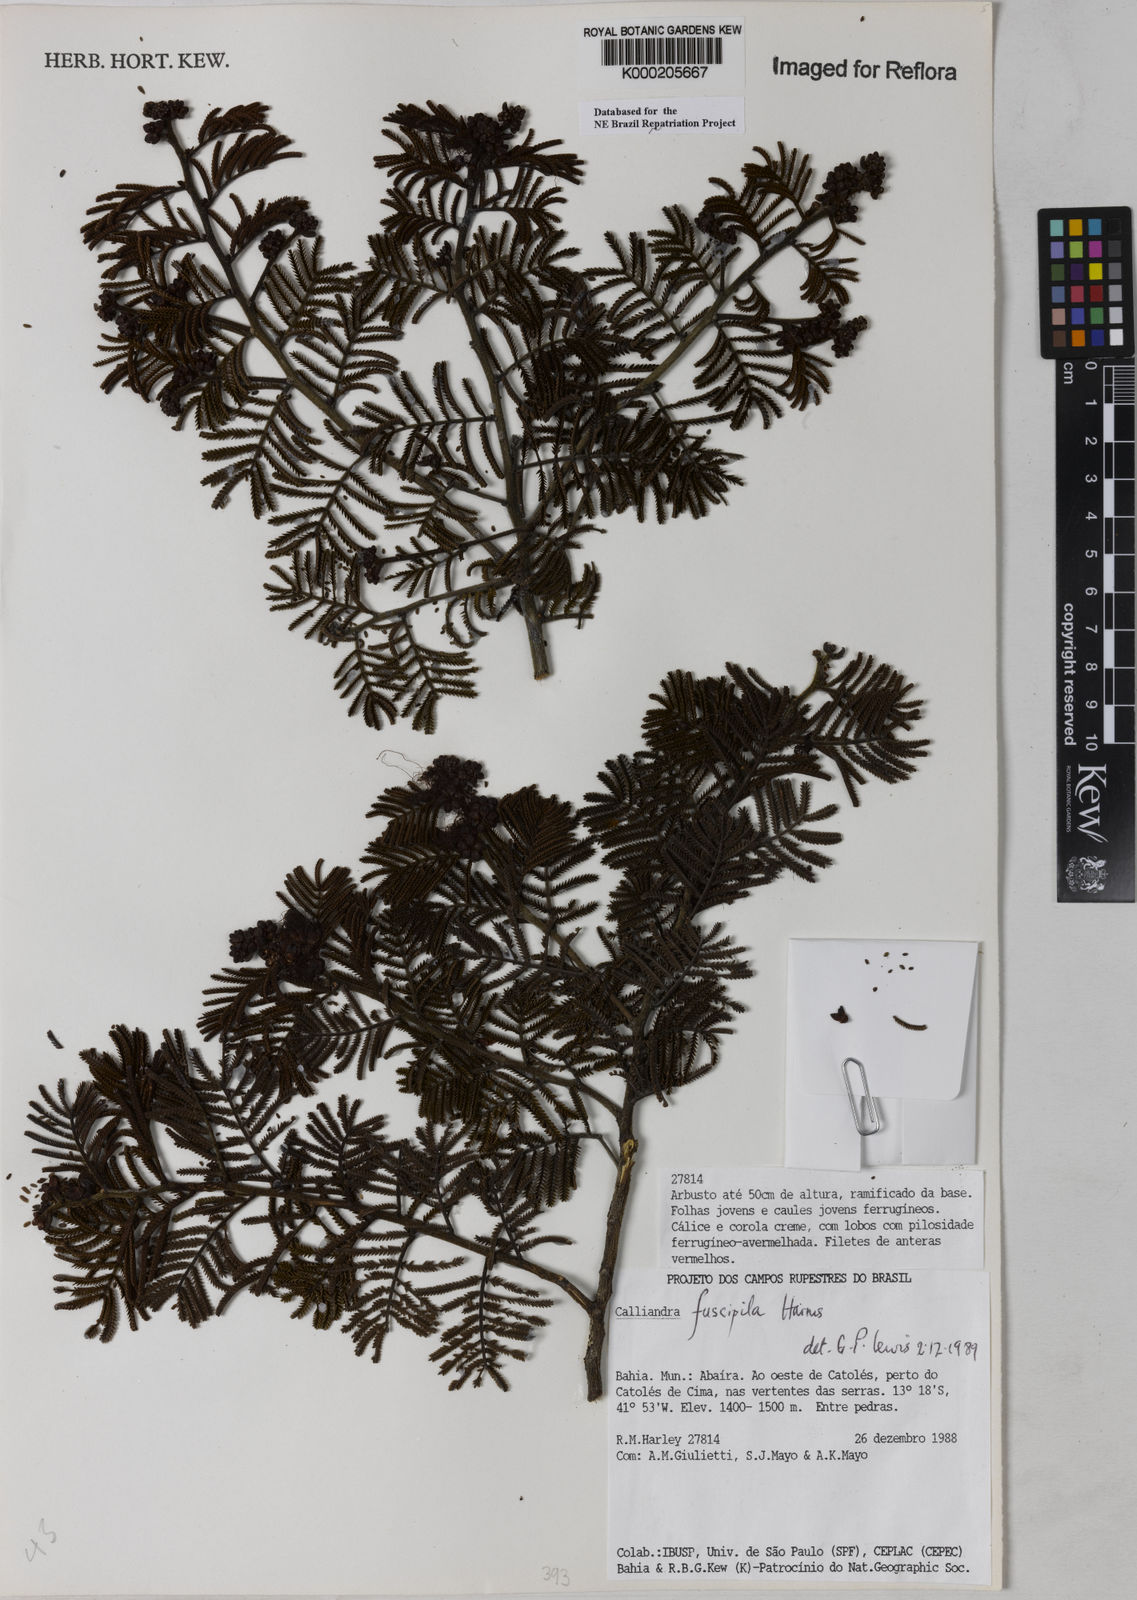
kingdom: Plantae
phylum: Tracheophyta
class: Magnoliopsida
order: Fabales
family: Fabaceae
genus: Calliandra
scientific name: Calliandra fuscipila
